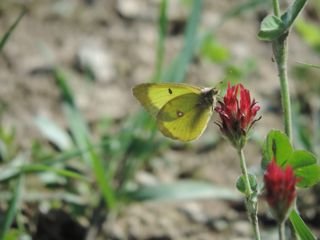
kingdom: Animalia
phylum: Arthropoda
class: Insecta
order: Lepidoptera
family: Pieridae
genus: Colias
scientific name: Colias philodice
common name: Clouded Sulphur
